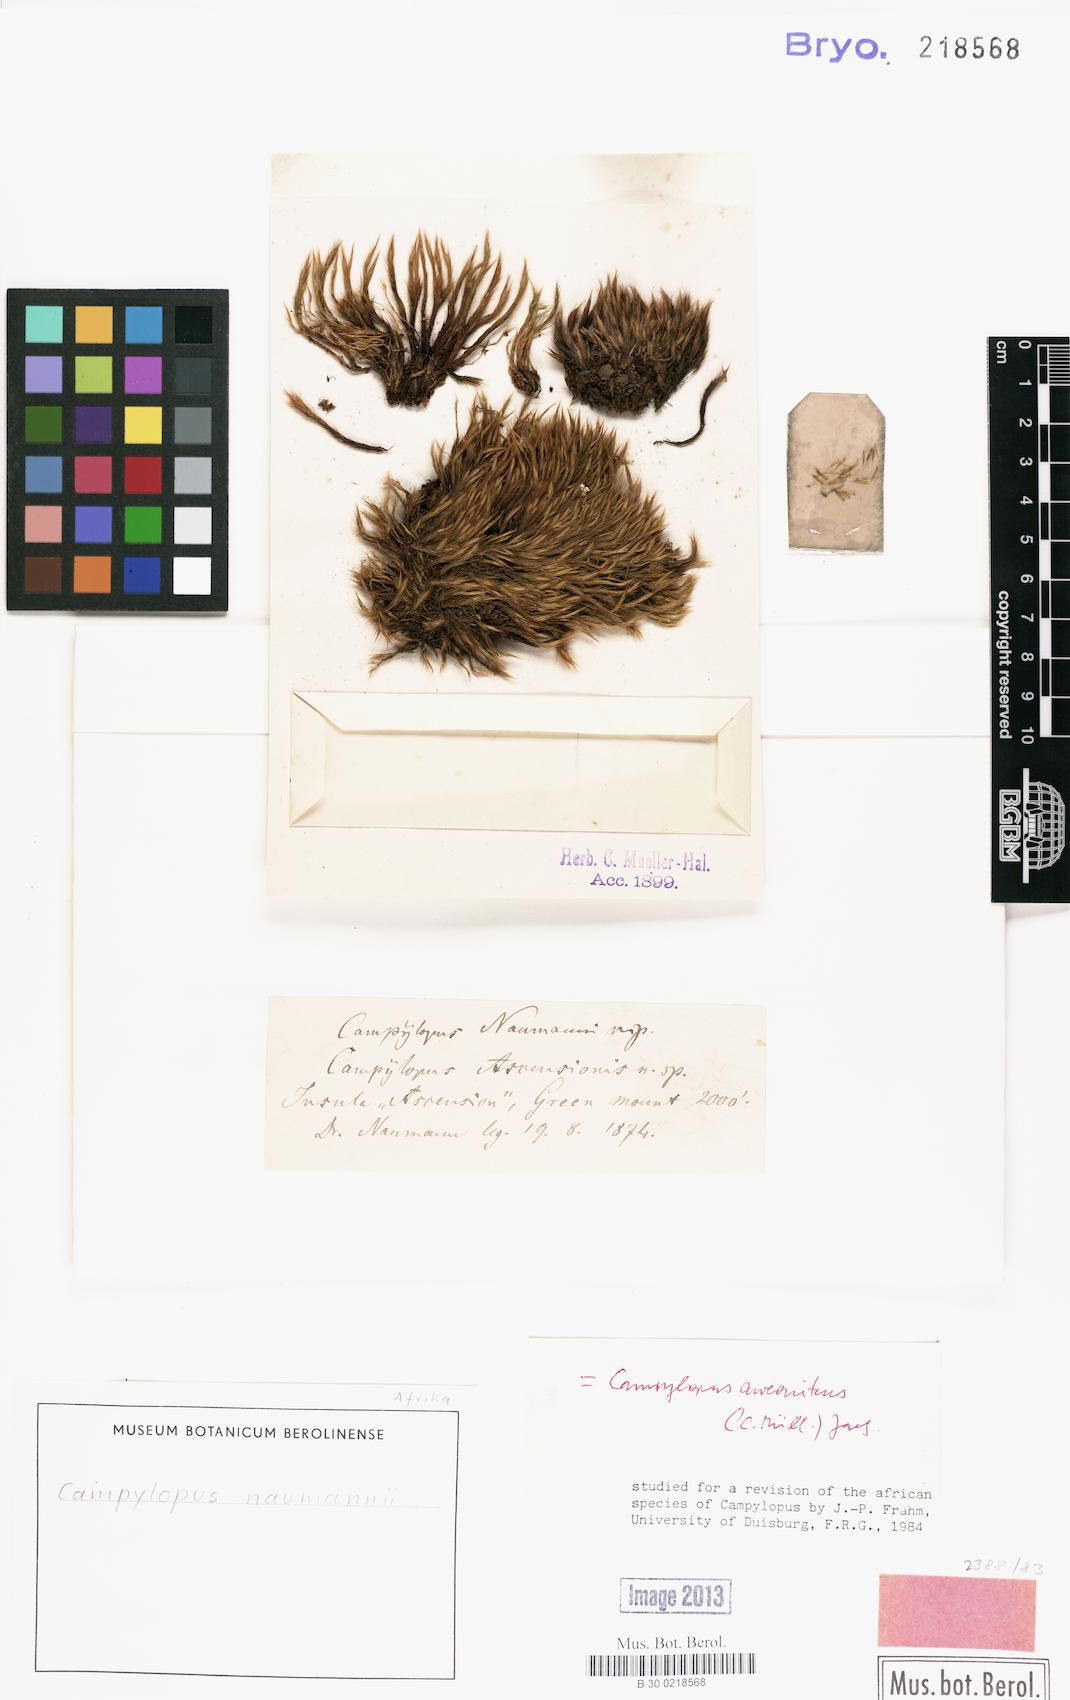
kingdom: Plantae
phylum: Bryophyta
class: Bryopsida
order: Dicranales
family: Leucobryaceae
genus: Campylopus
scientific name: Campylopus aureonitens
